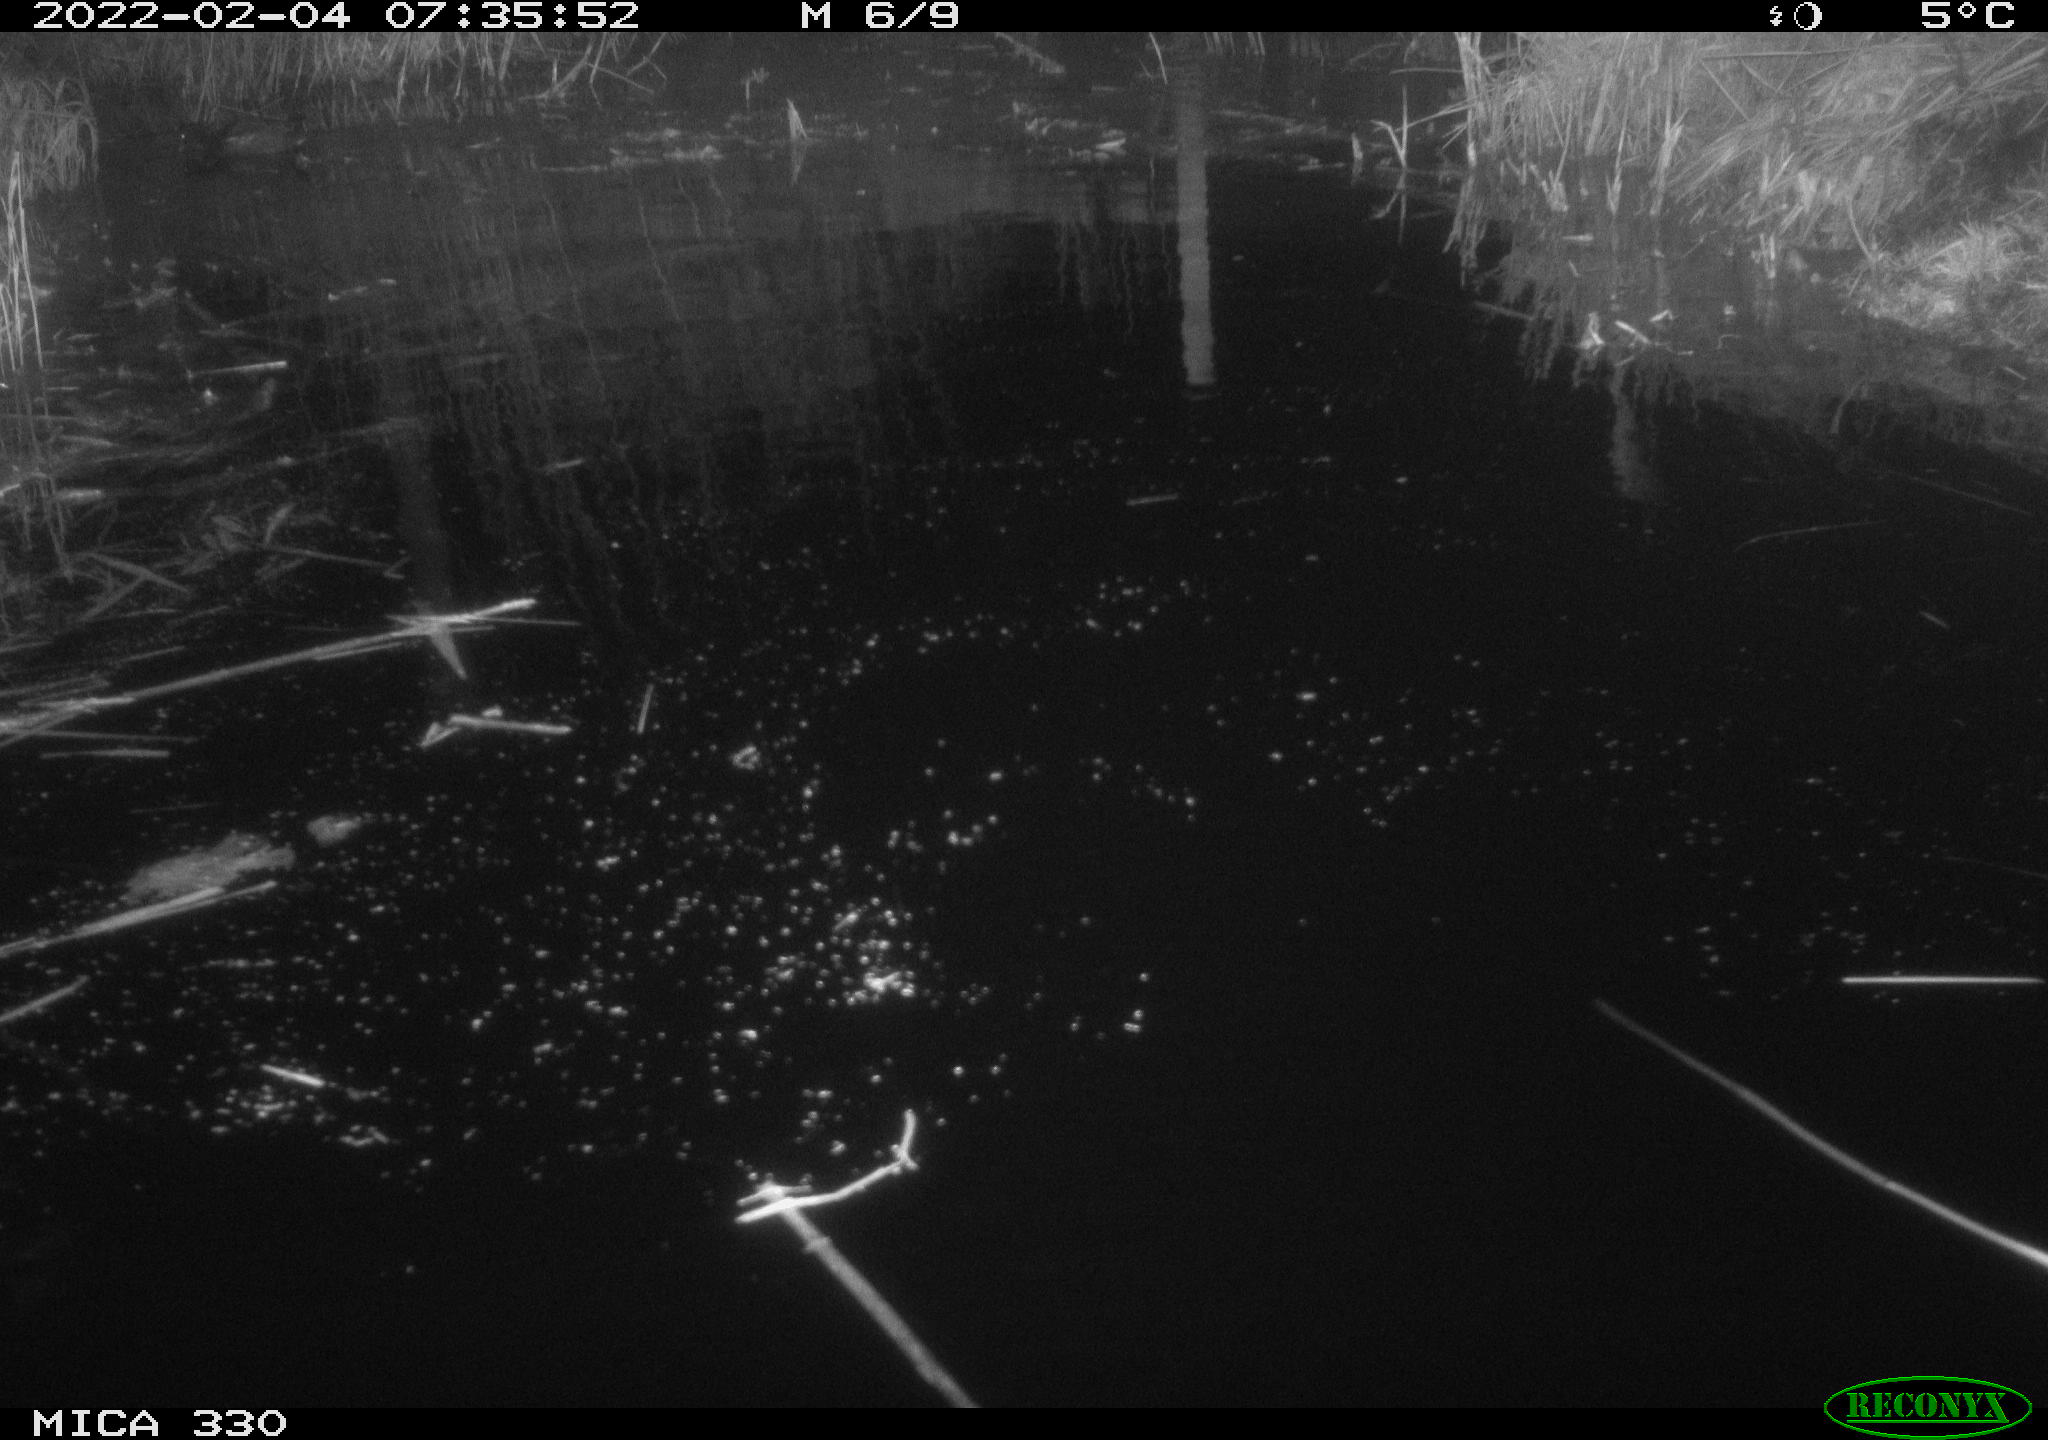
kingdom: Animalia
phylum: Chordata
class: Aves
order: Gruiformes
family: Rallidae
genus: Gallinula
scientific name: Gallinula chloropus
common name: Common moorhen
